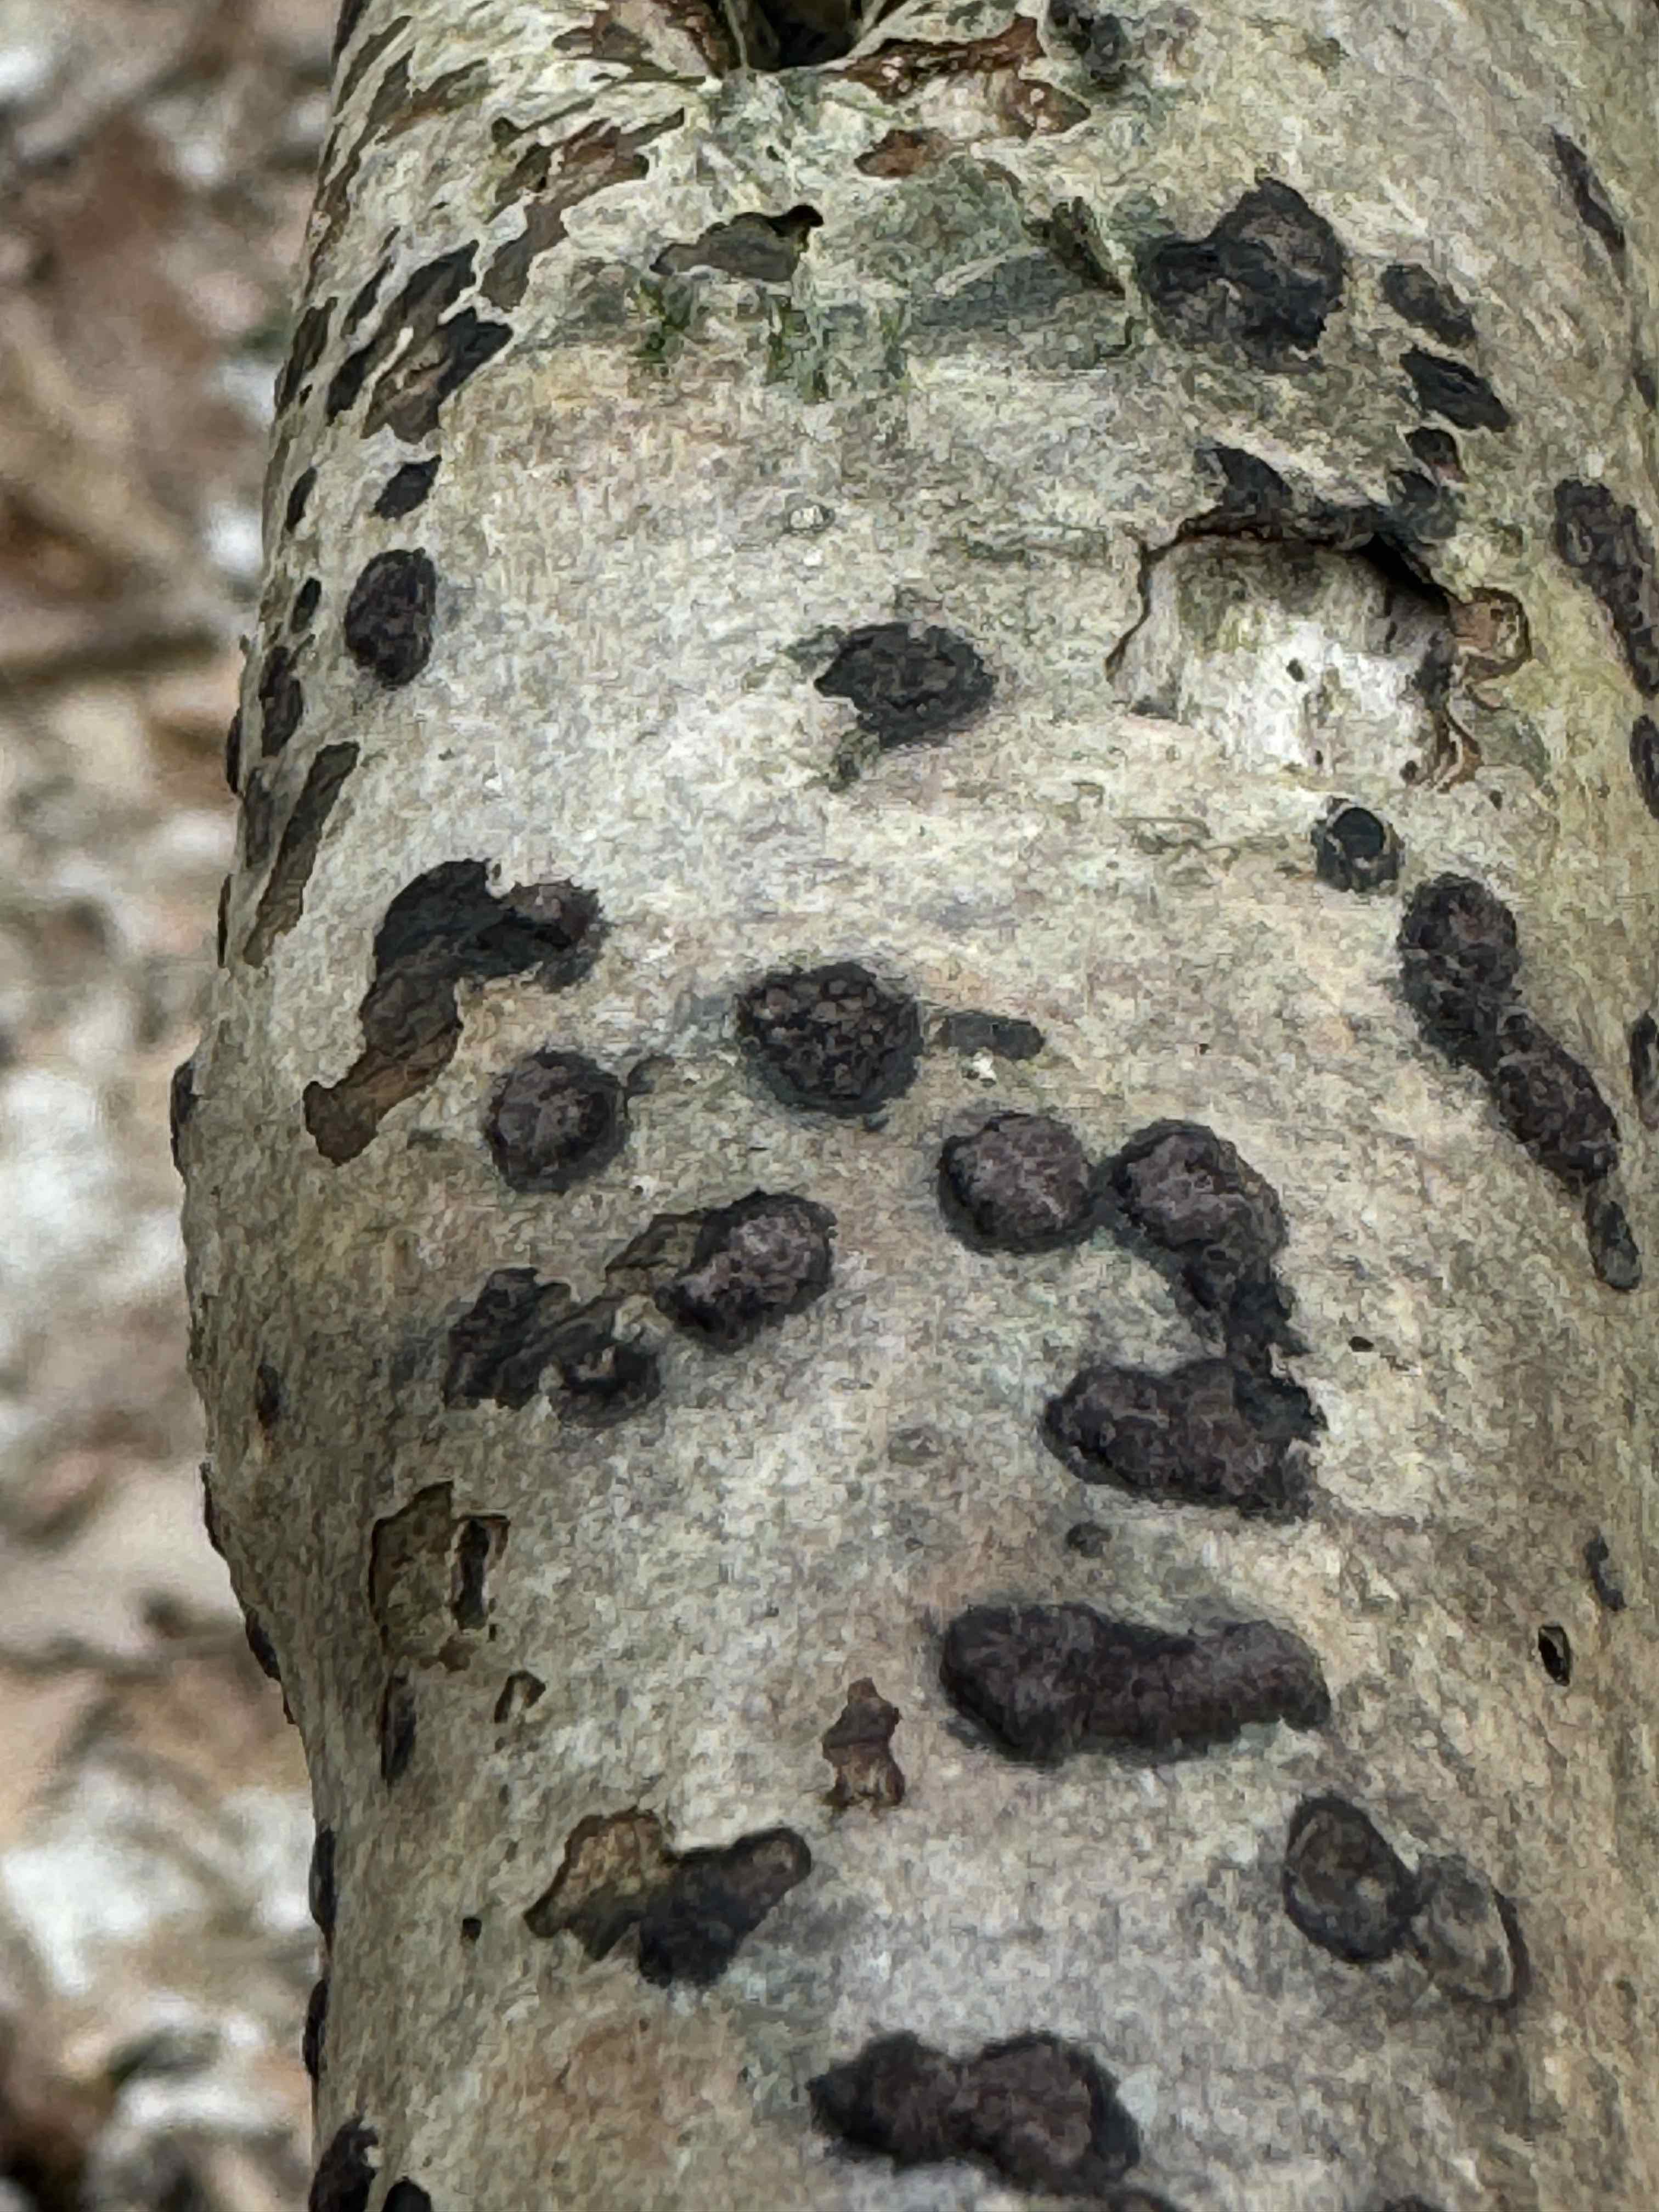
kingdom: Fungi
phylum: Ascomycota
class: Sordariomycetes
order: Xylariales
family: Hypoxylaceae
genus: Hypoxylon
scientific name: Hypoxylon fuscum
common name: kegleformet kulbær
